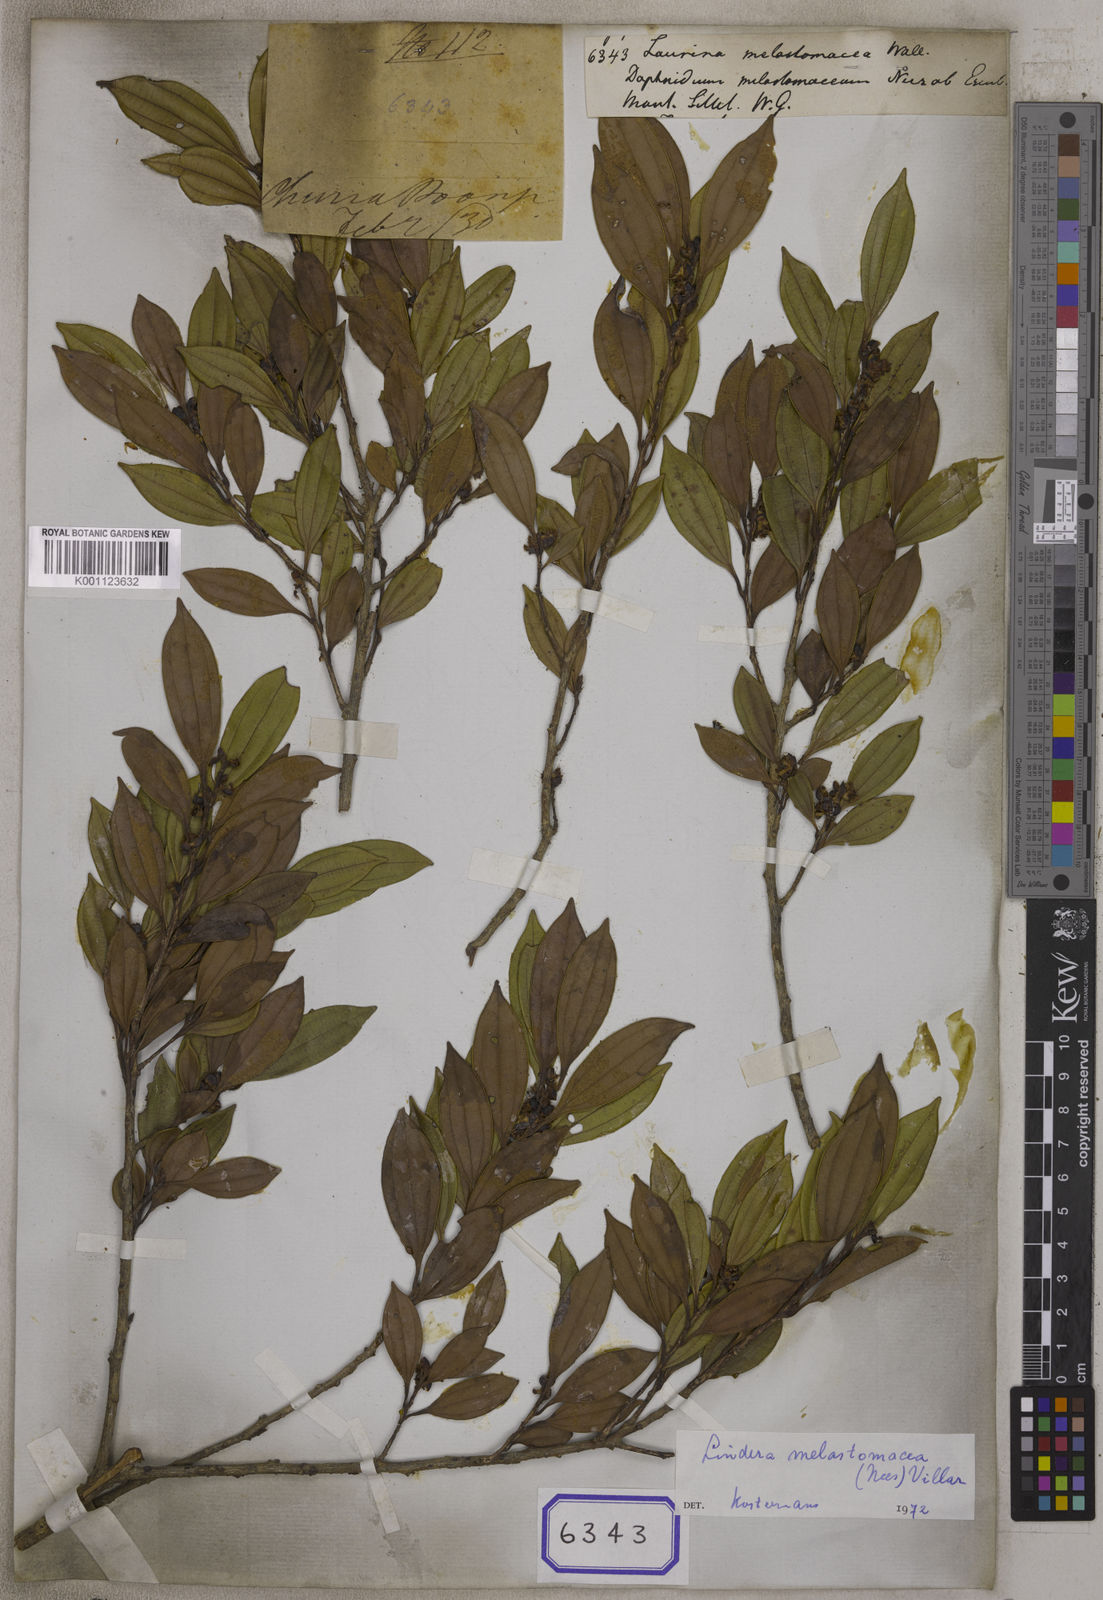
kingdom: Plantae
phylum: Tracheophyta
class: Magnoliopsida
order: Laurales
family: Lauraceae
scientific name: Lauraceae
